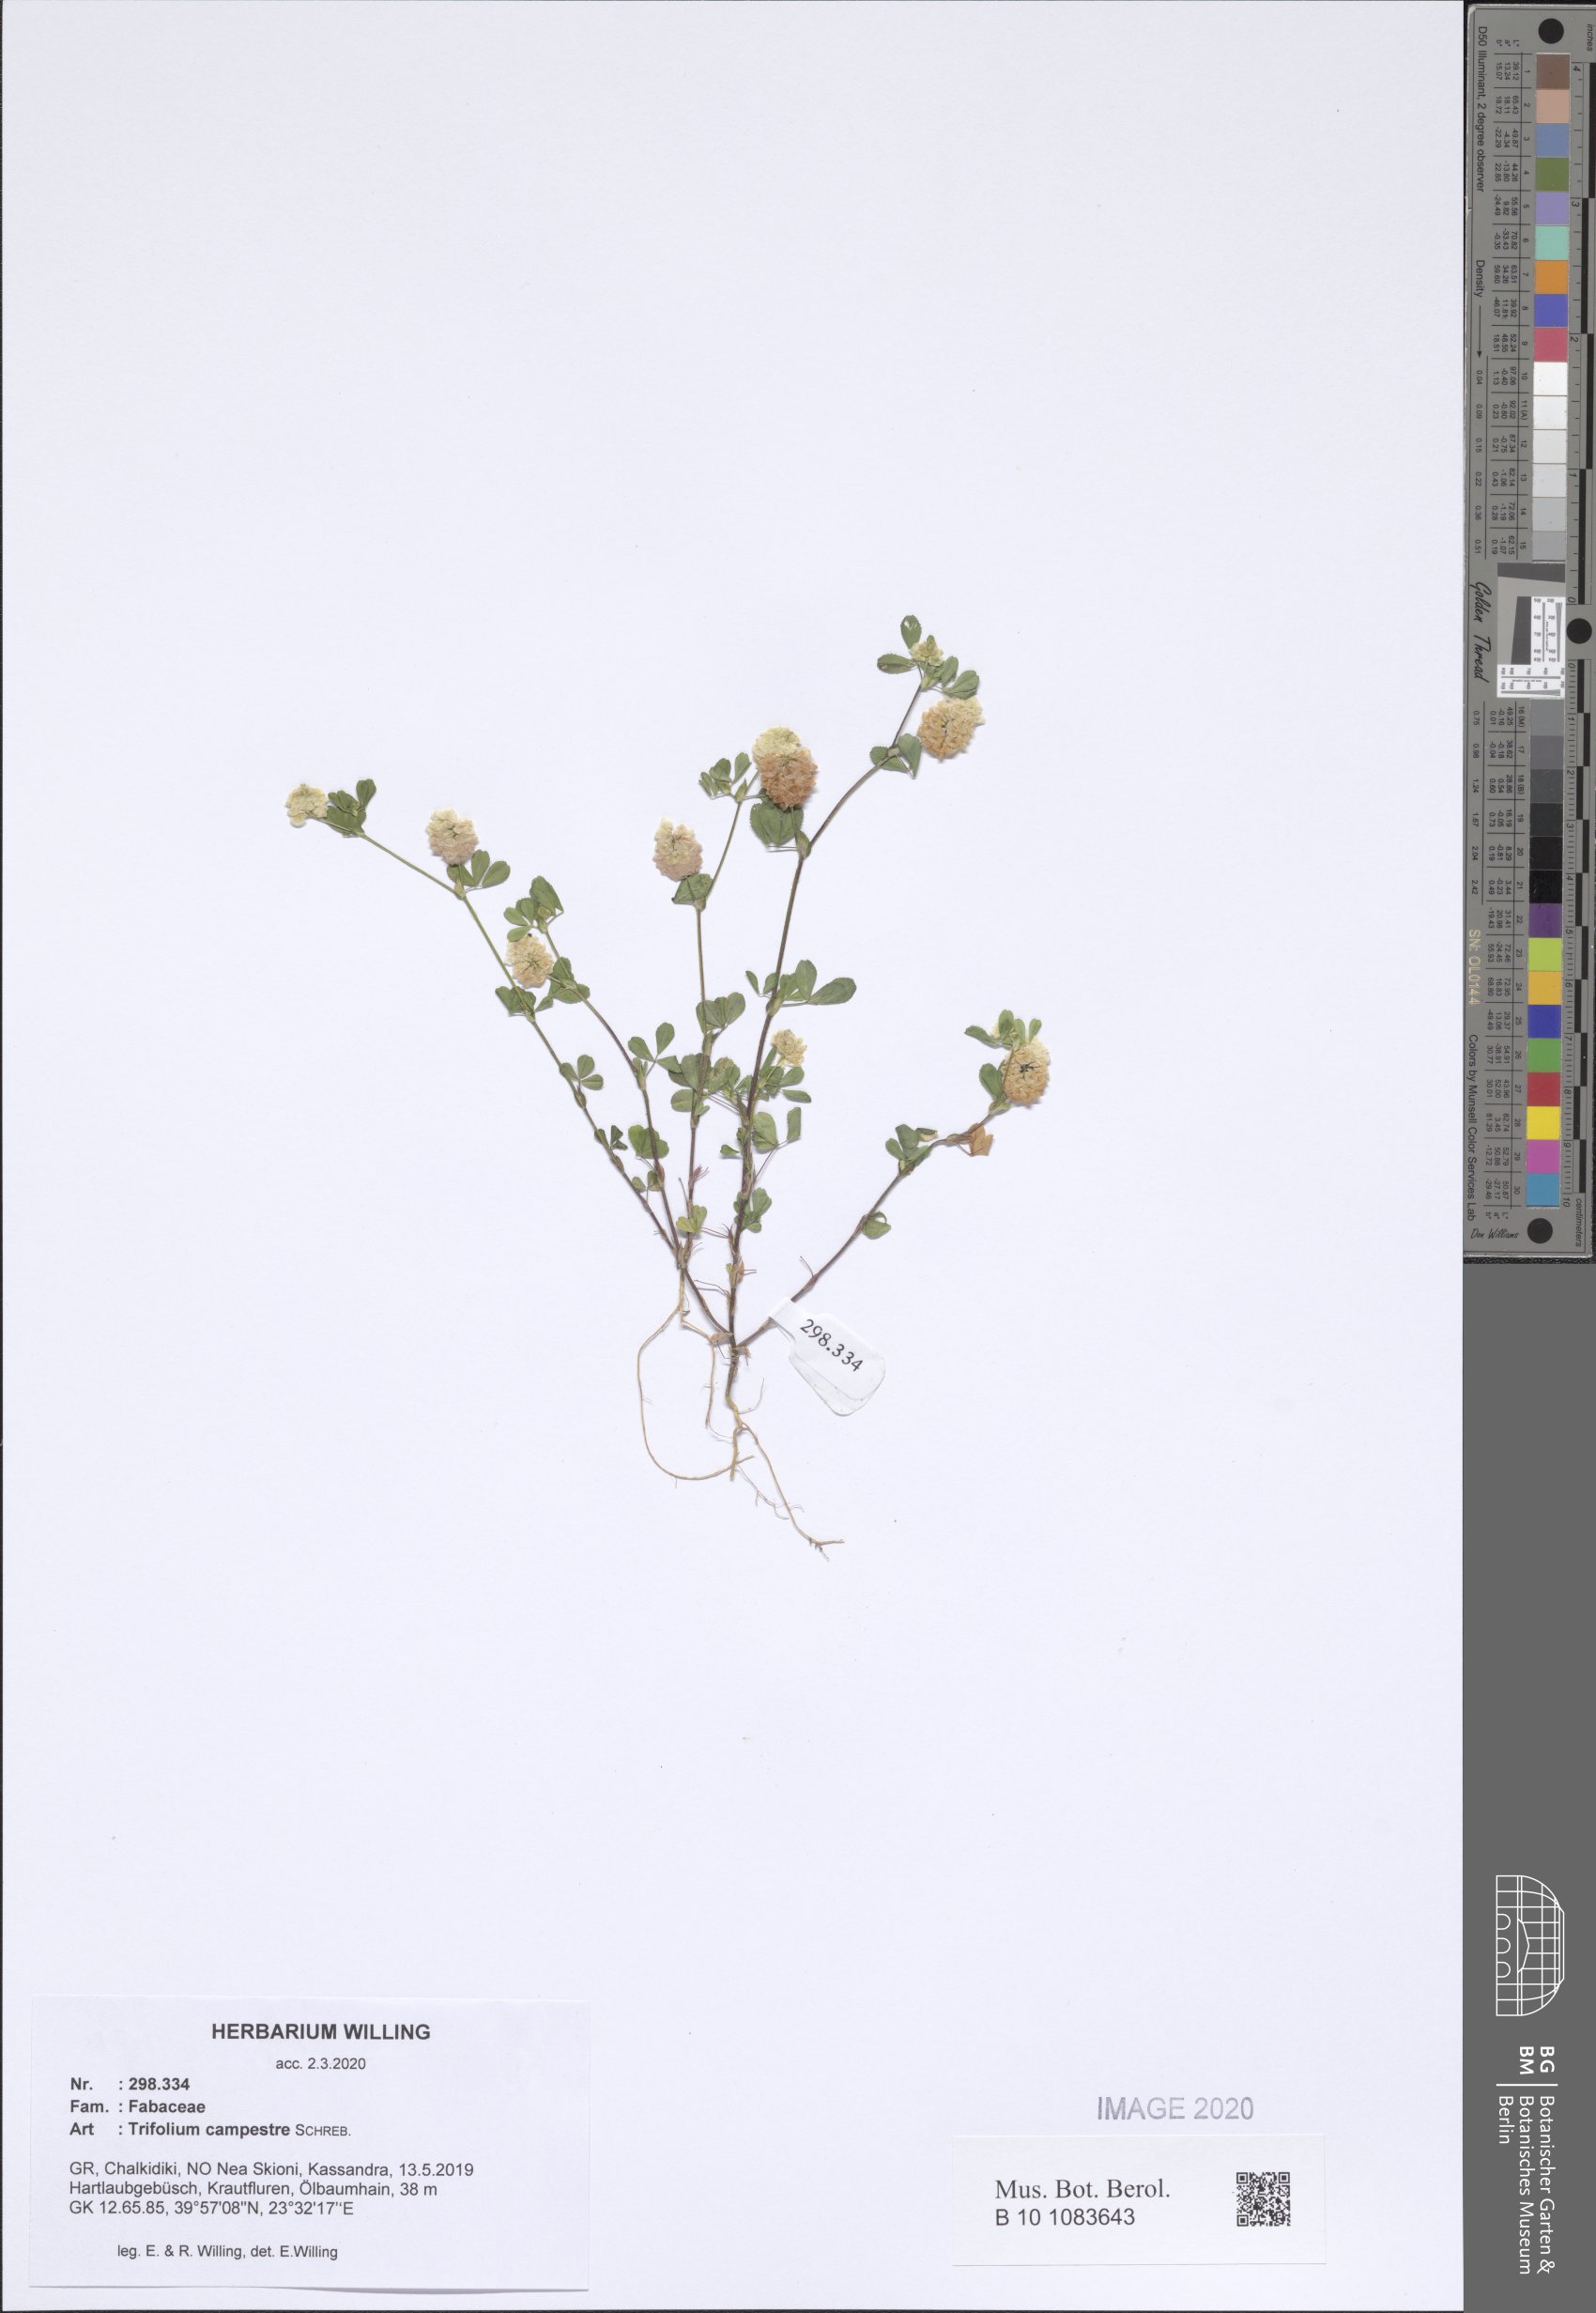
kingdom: Plantae
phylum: Tracheophyta
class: Magnoliopsida
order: Fabales
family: Fabaceae
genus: Trifolium
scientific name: Trifolium campestre
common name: Field clover
